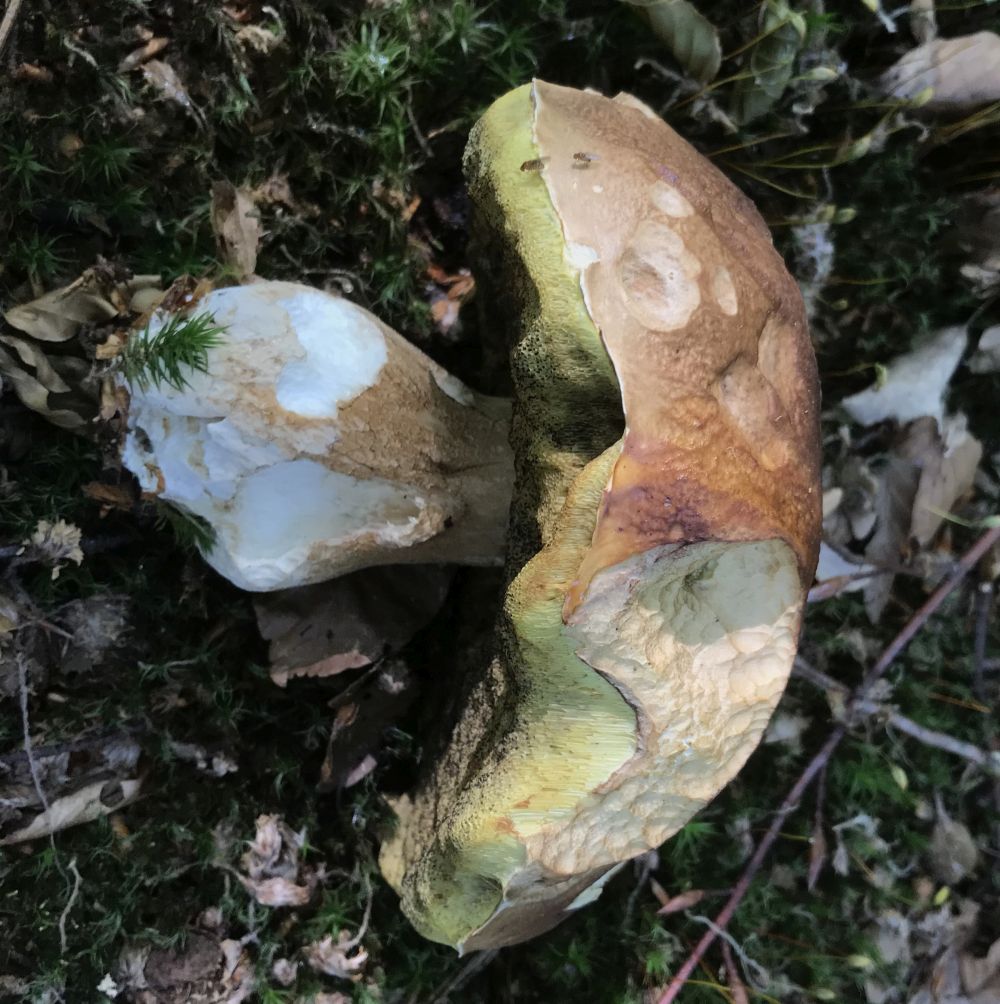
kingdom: Fungi
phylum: Basidiomycota
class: Agaricomycetes
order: Boletales
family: Boletaceae
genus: Boletus
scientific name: Boletus reticulatus
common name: sommer-rørhat
